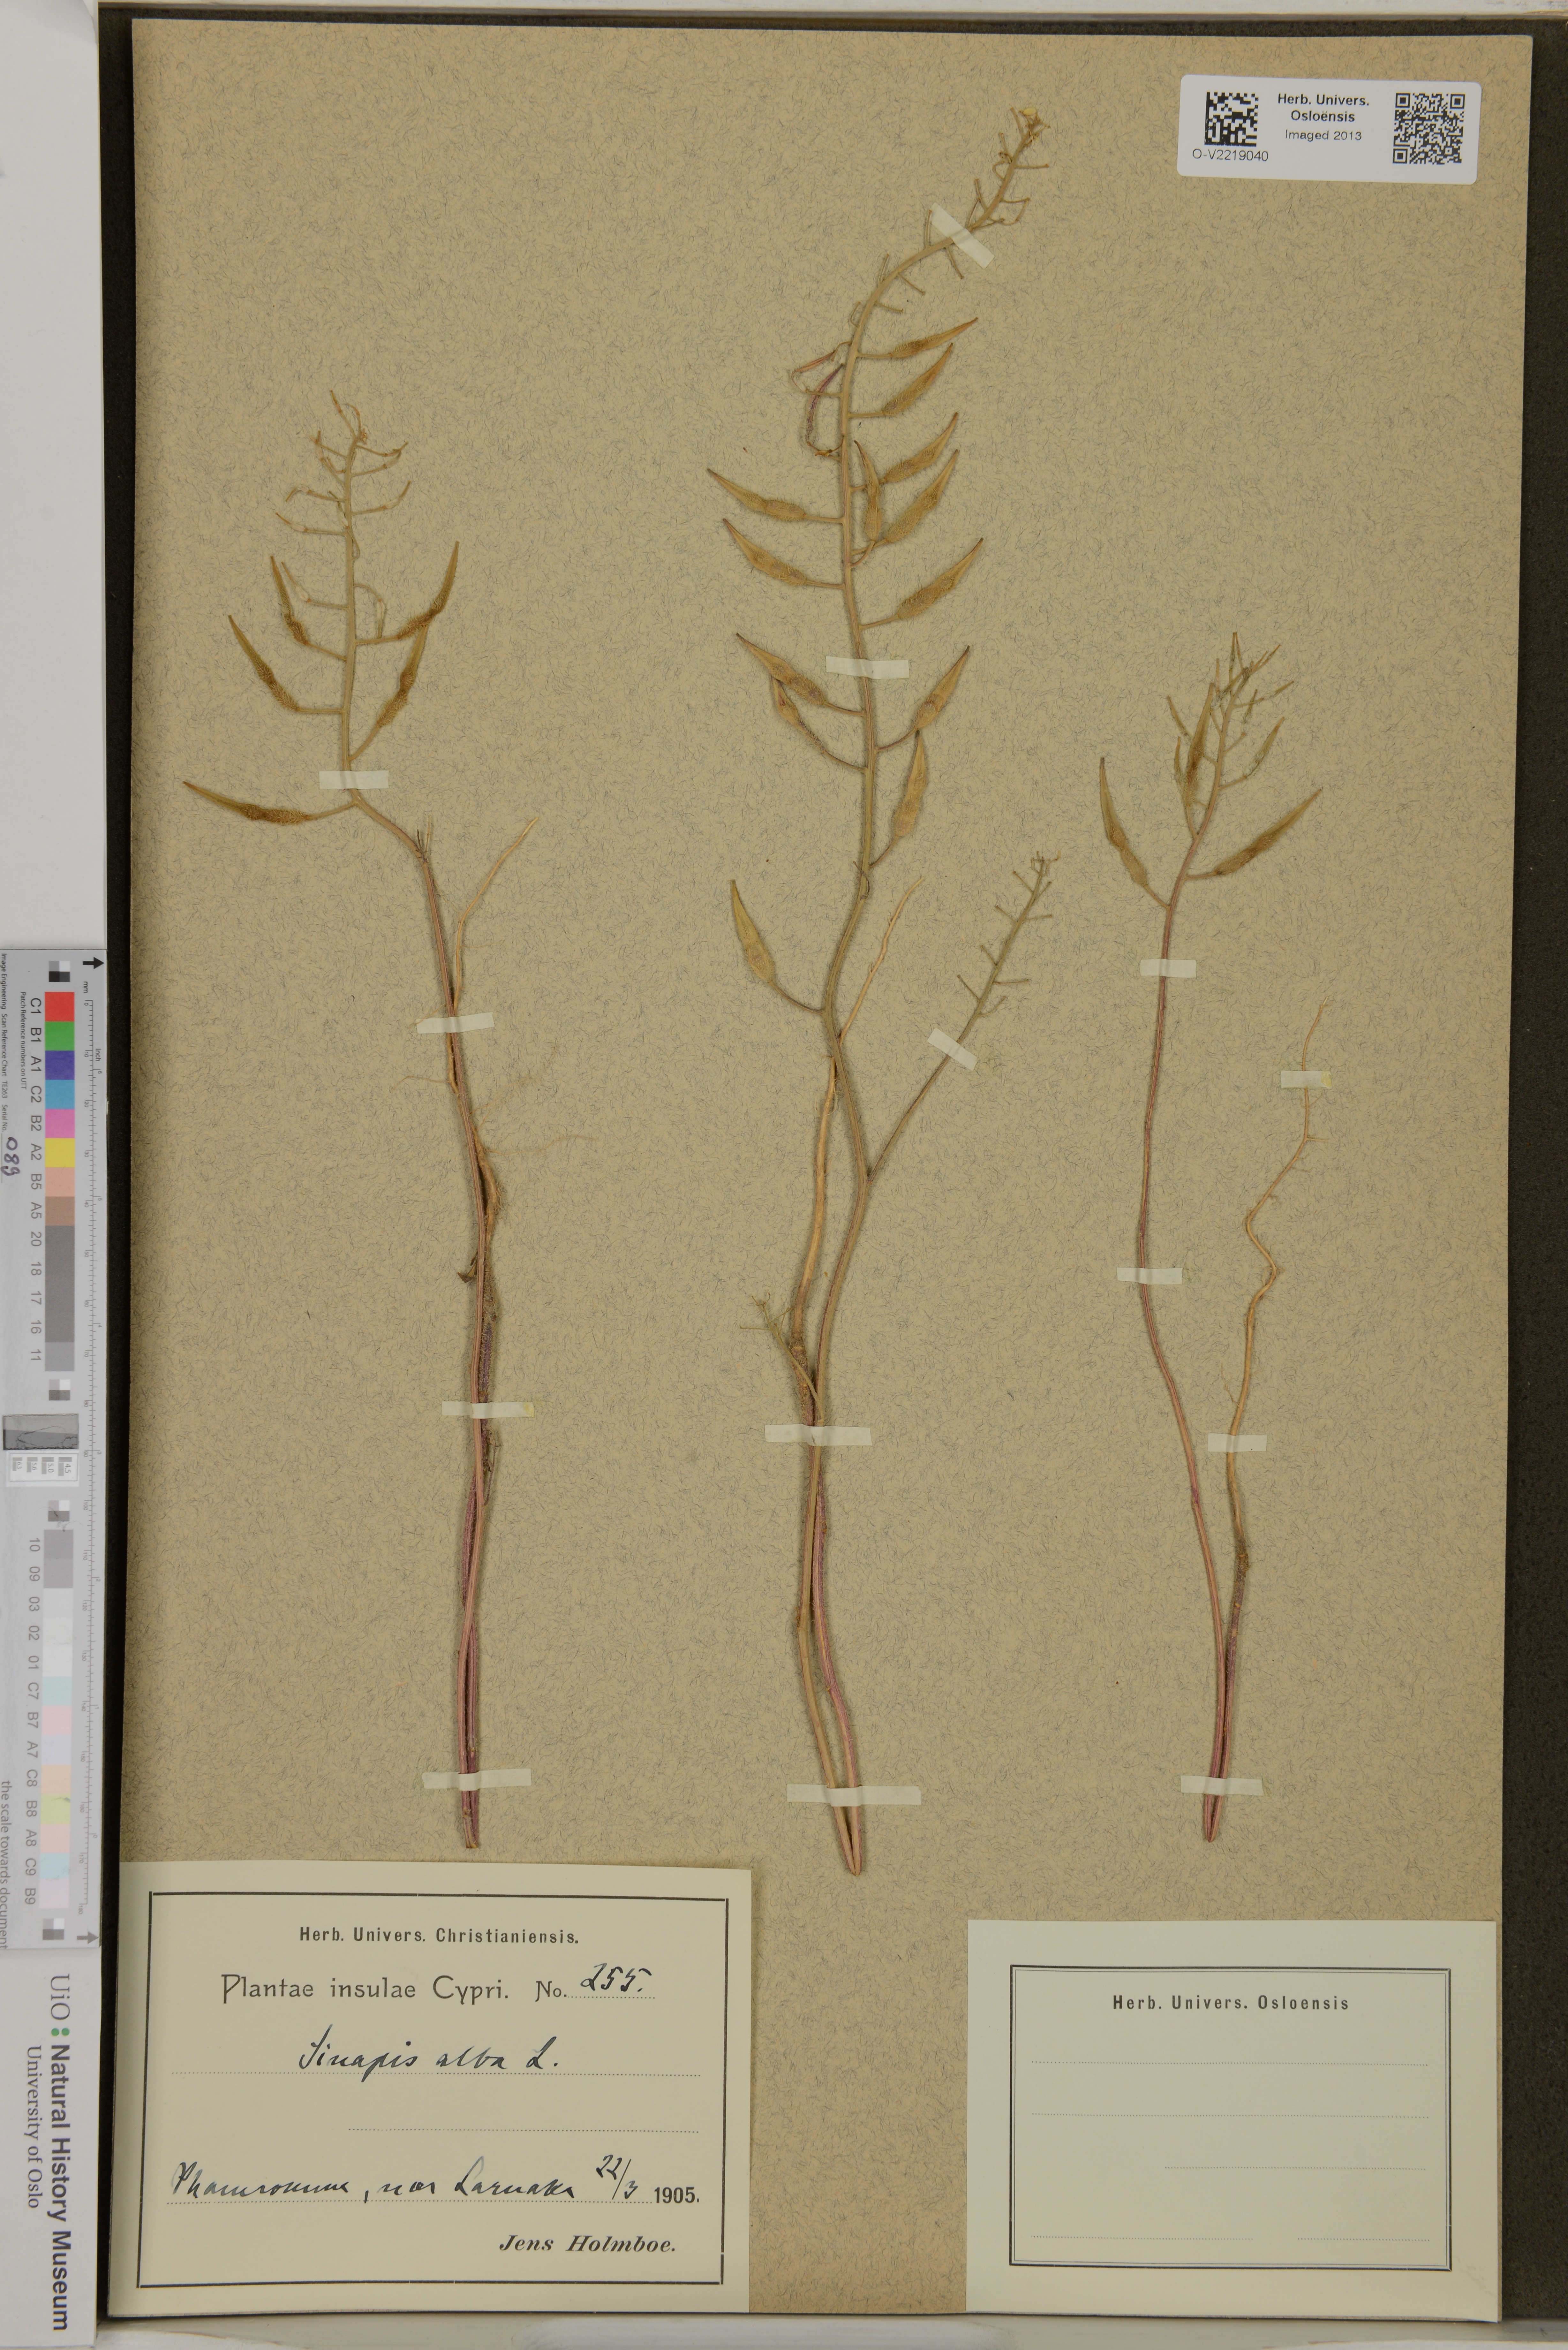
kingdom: Plantae
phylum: Tracheophyta
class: Magnoliopsida
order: Brassicales
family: Brassicaceae
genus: Sinapis
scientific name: Sinapis alba
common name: White mustard
